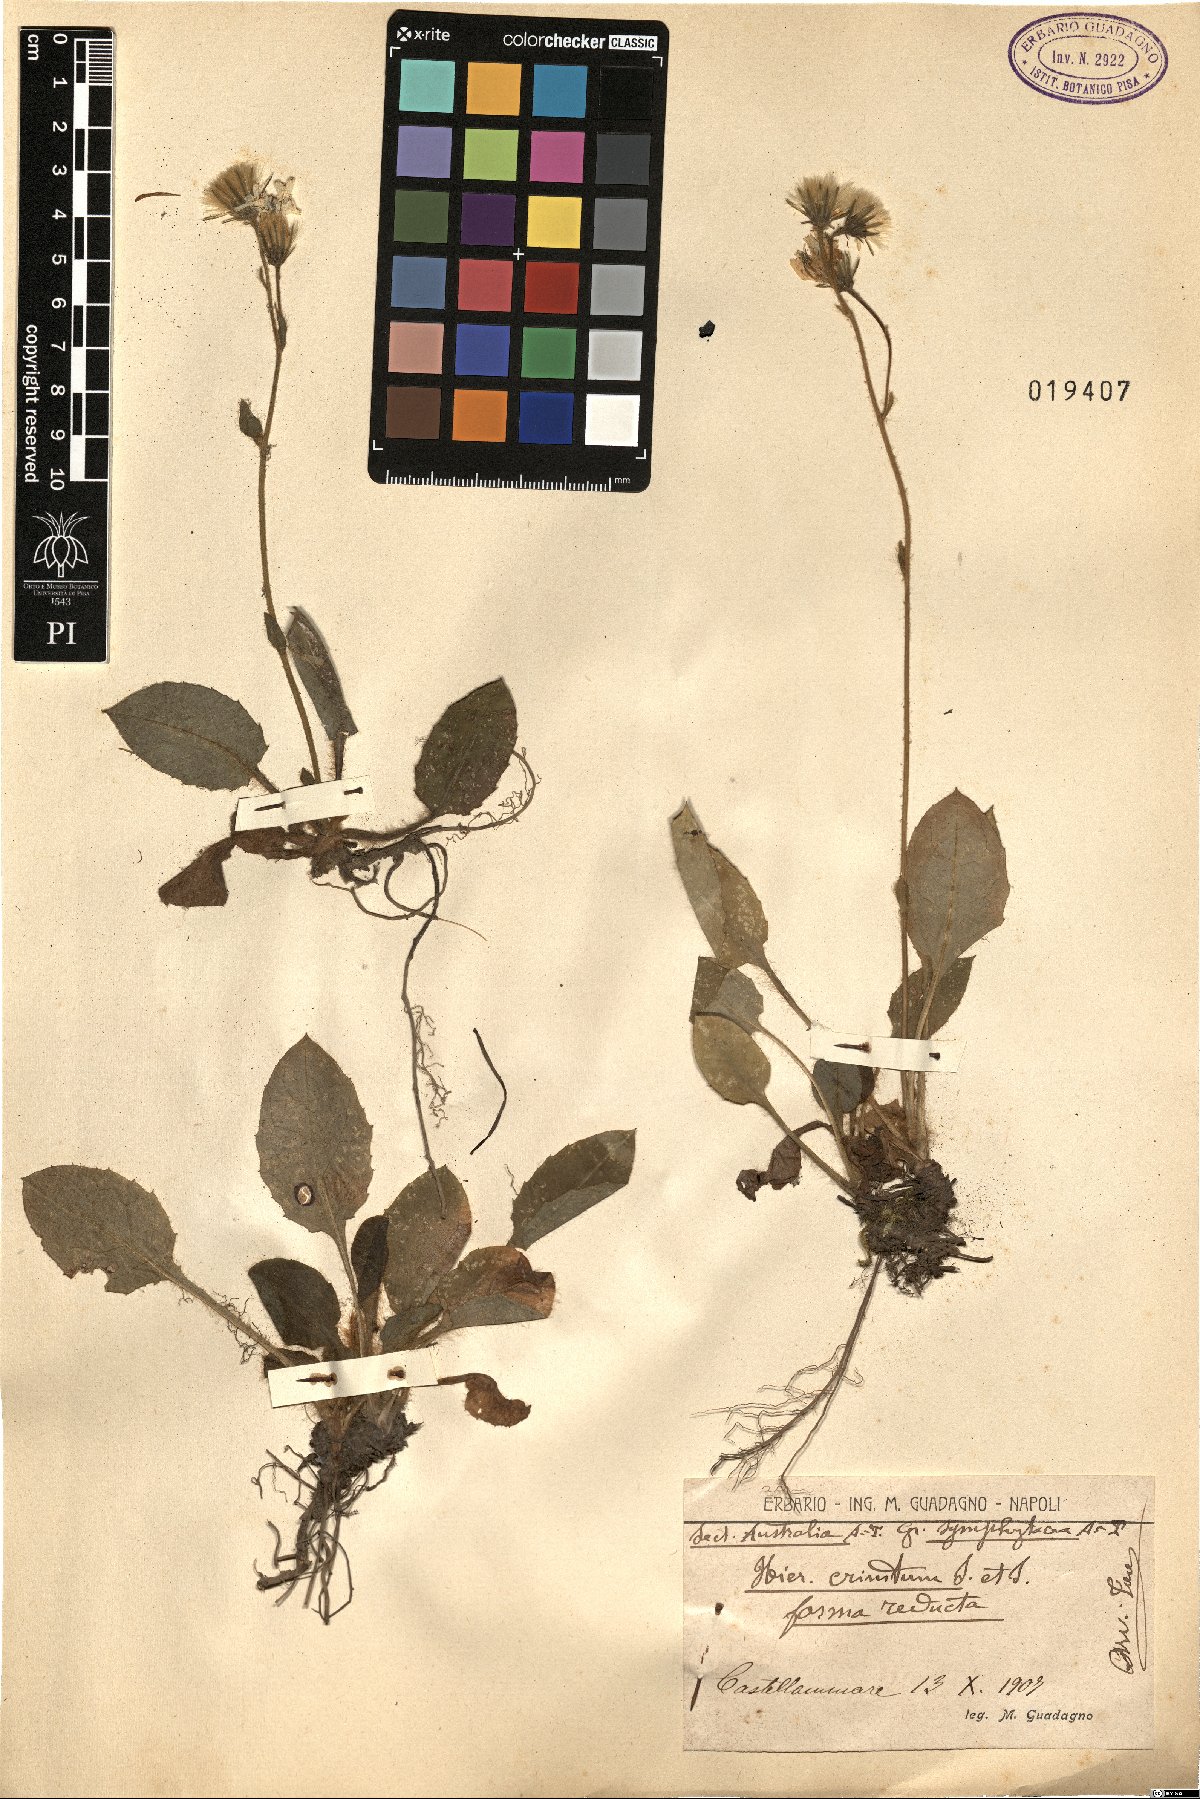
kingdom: Plantae
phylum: Tracheophyta
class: Magnoliopsida
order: Asterales
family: Asteraceae
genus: Hieracium
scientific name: Hieracium racemosum
